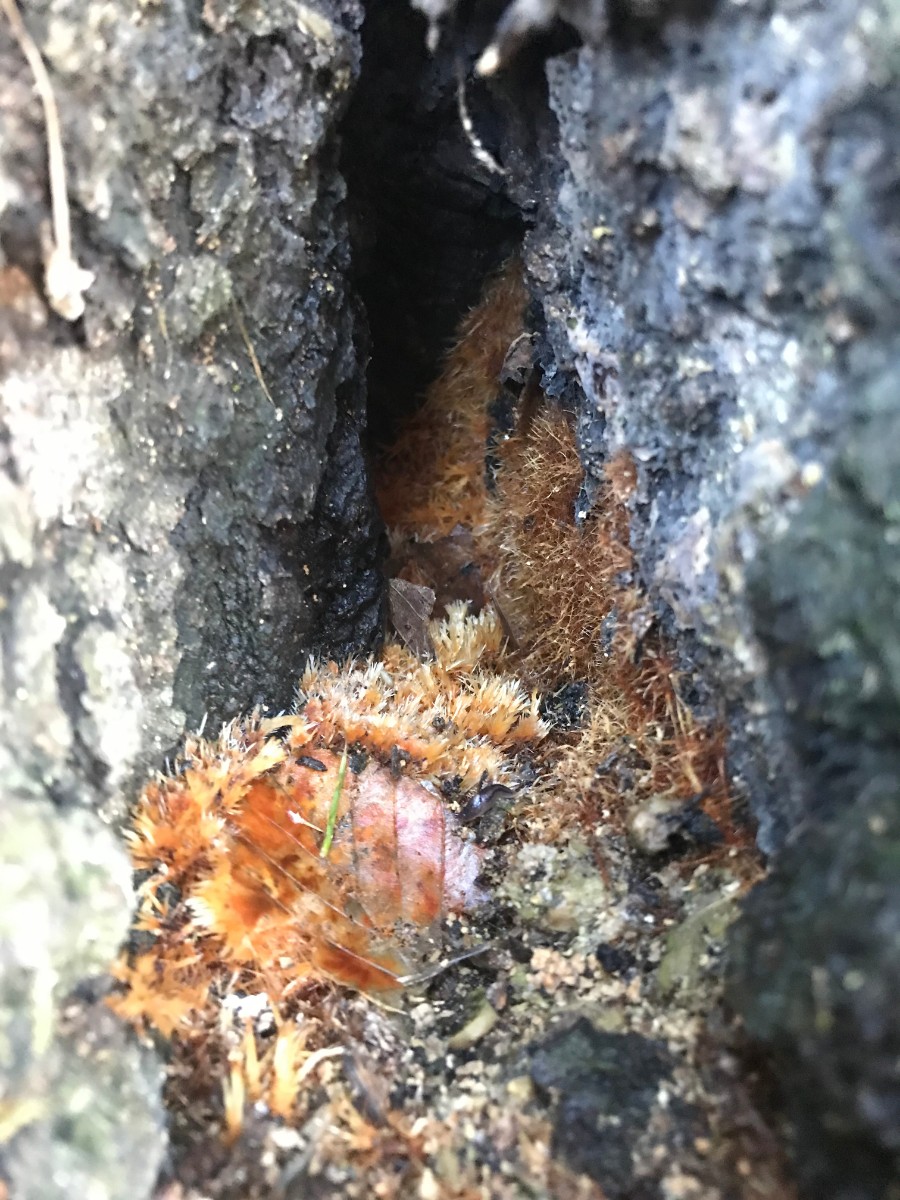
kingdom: Fungi
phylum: Basidiomycota
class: Agaricomycetes
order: Agaricales
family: Psathyrellaceae
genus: Ozonium
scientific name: Ozonium
